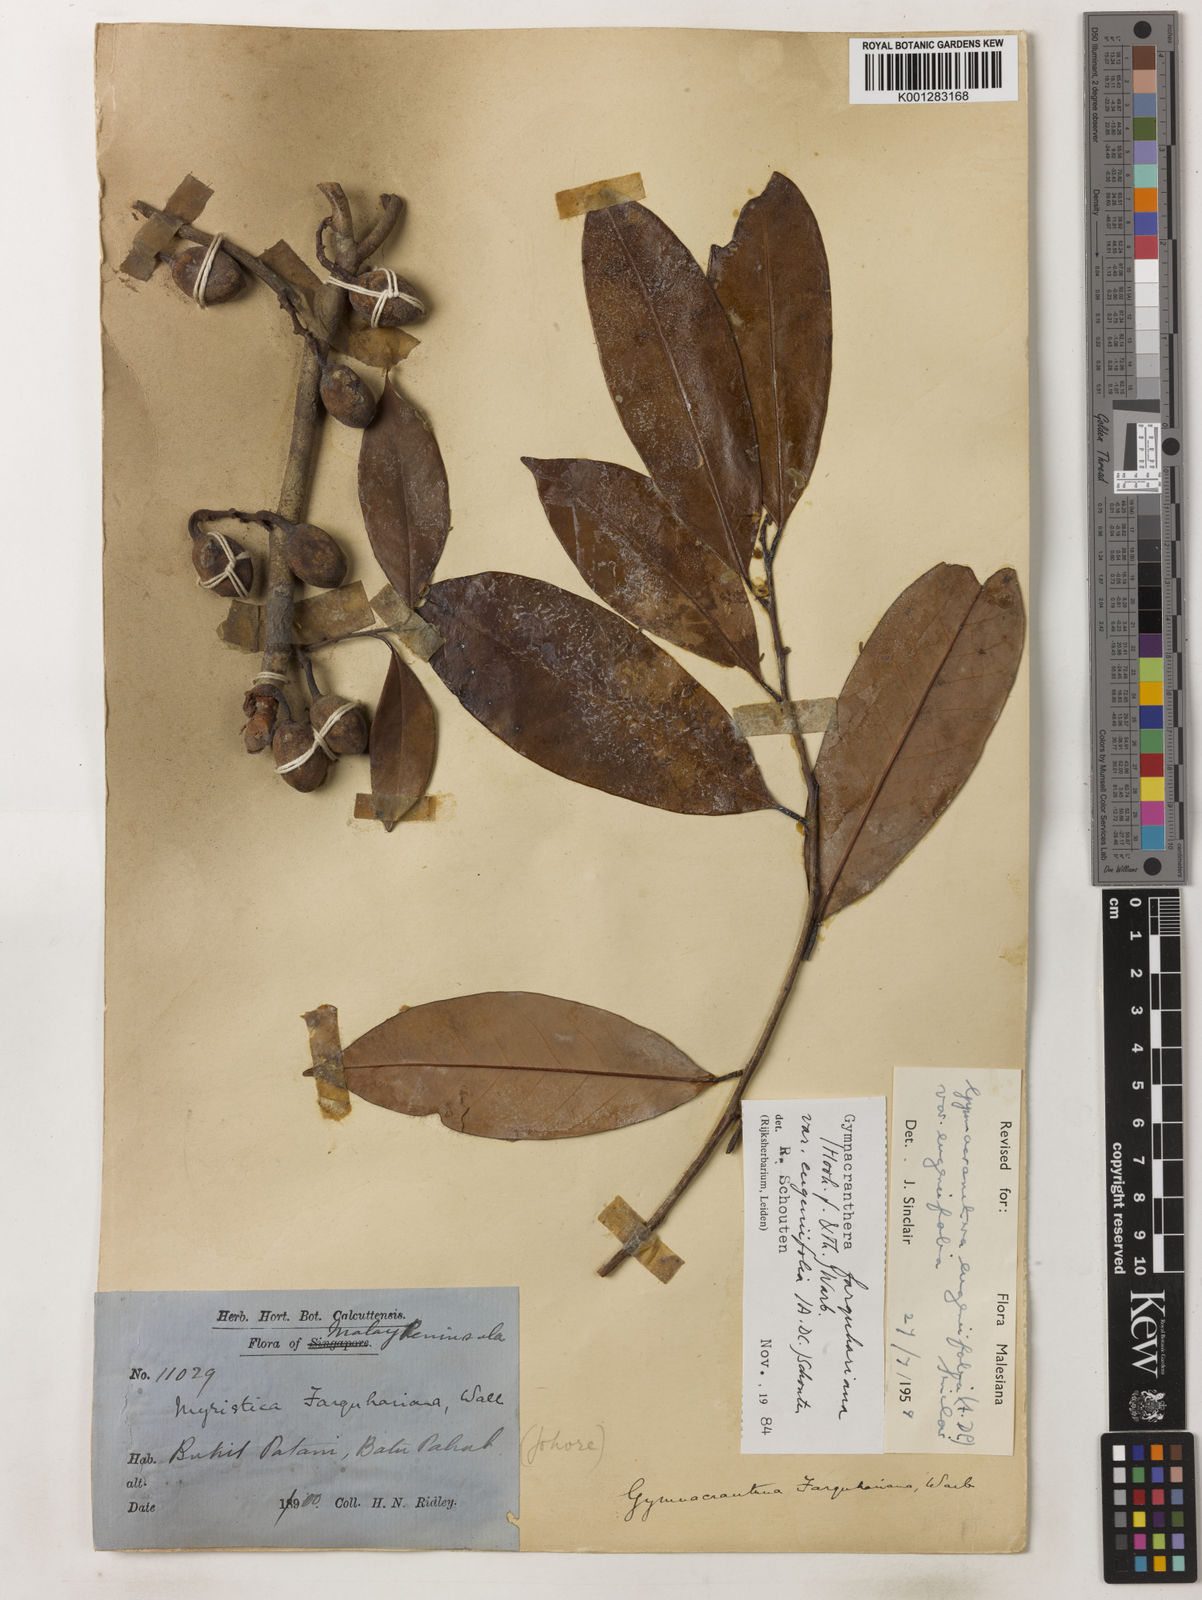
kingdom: Plantae
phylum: Tracheophyta
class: Magnoliopsida
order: Magnoliales
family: Myristicaceae
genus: Gymnacranthera
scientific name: Gymnacranthera farquhariana
